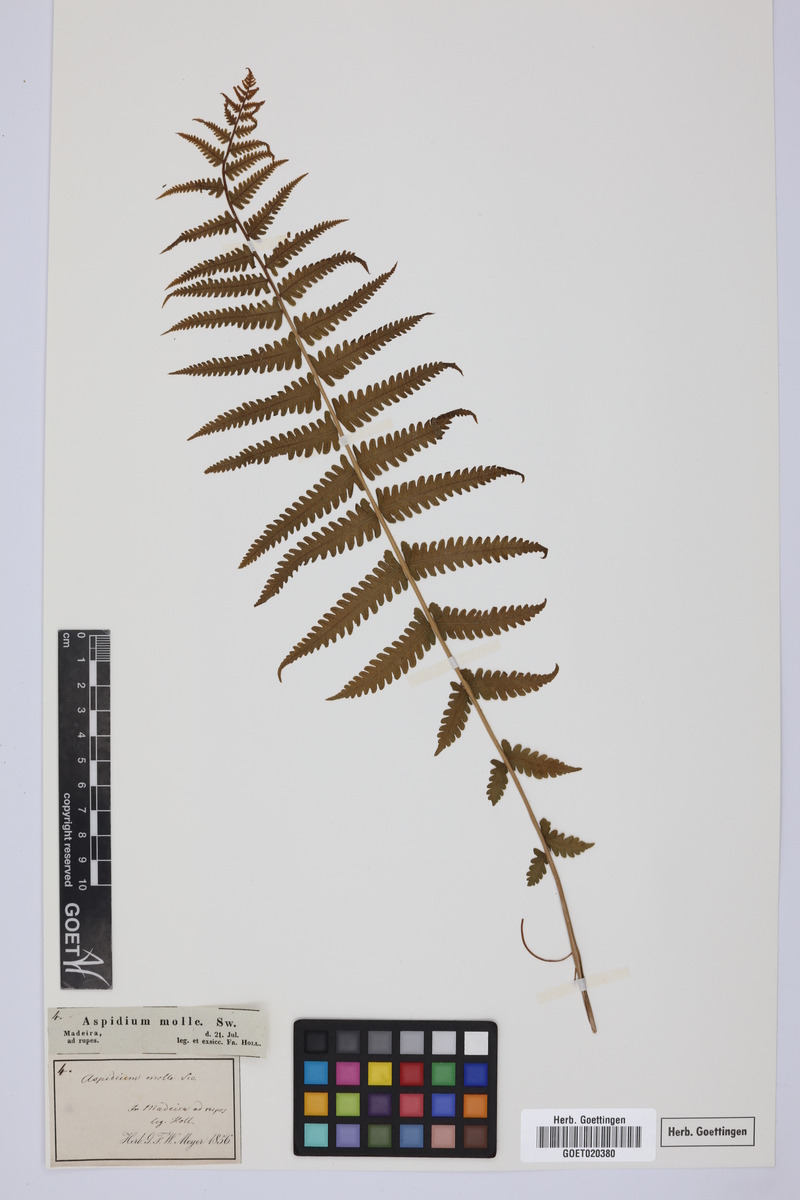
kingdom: Plantae
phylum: Tracheophyta
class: Polypodiopsida
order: Polypodiales
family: Thelypteridaceae
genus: Christella
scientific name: Christella dentata
